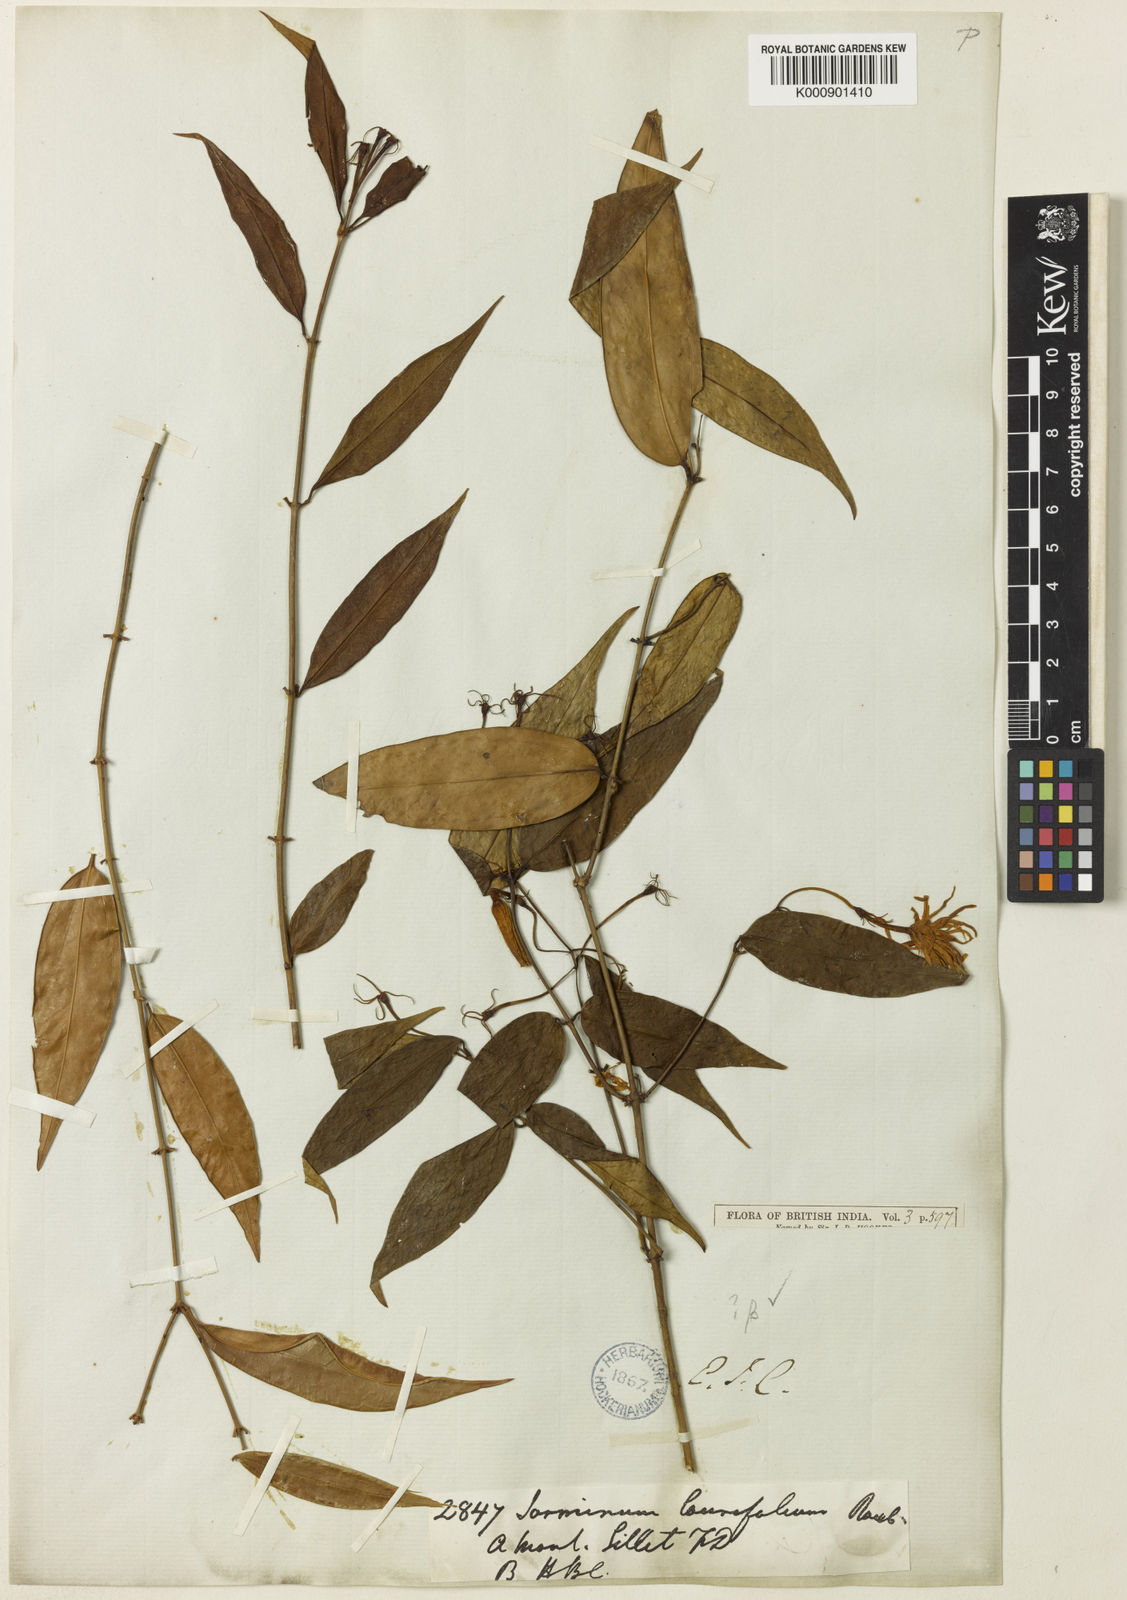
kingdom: Plantae
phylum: Tracheophyta
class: Magnoliopsida
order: Lamiales
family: Oleaceae
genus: Jasminum
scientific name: Jasminum
